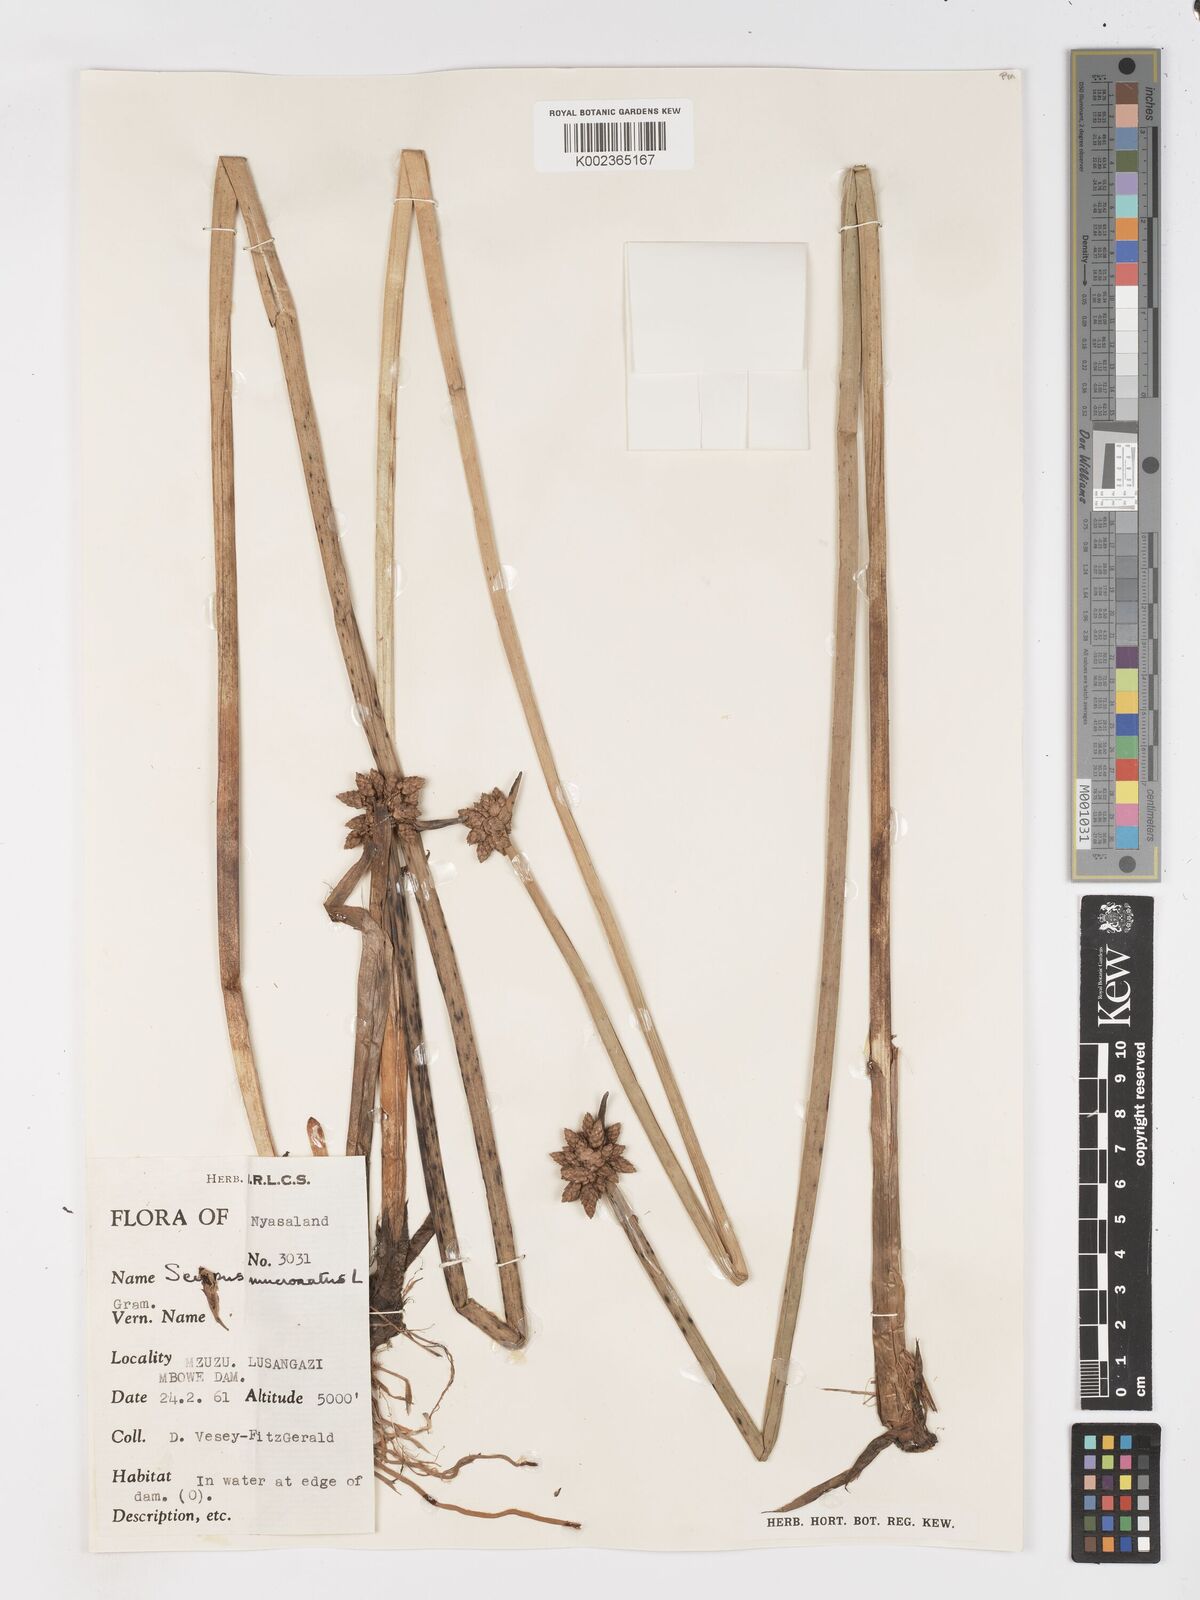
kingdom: Plantae
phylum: Tracheophyta
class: Liliopsida
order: Poales
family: Cyperaceae
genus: Schoenoplectiella
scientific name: Schoenoplectiella mucronata
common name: Bog bulrush
